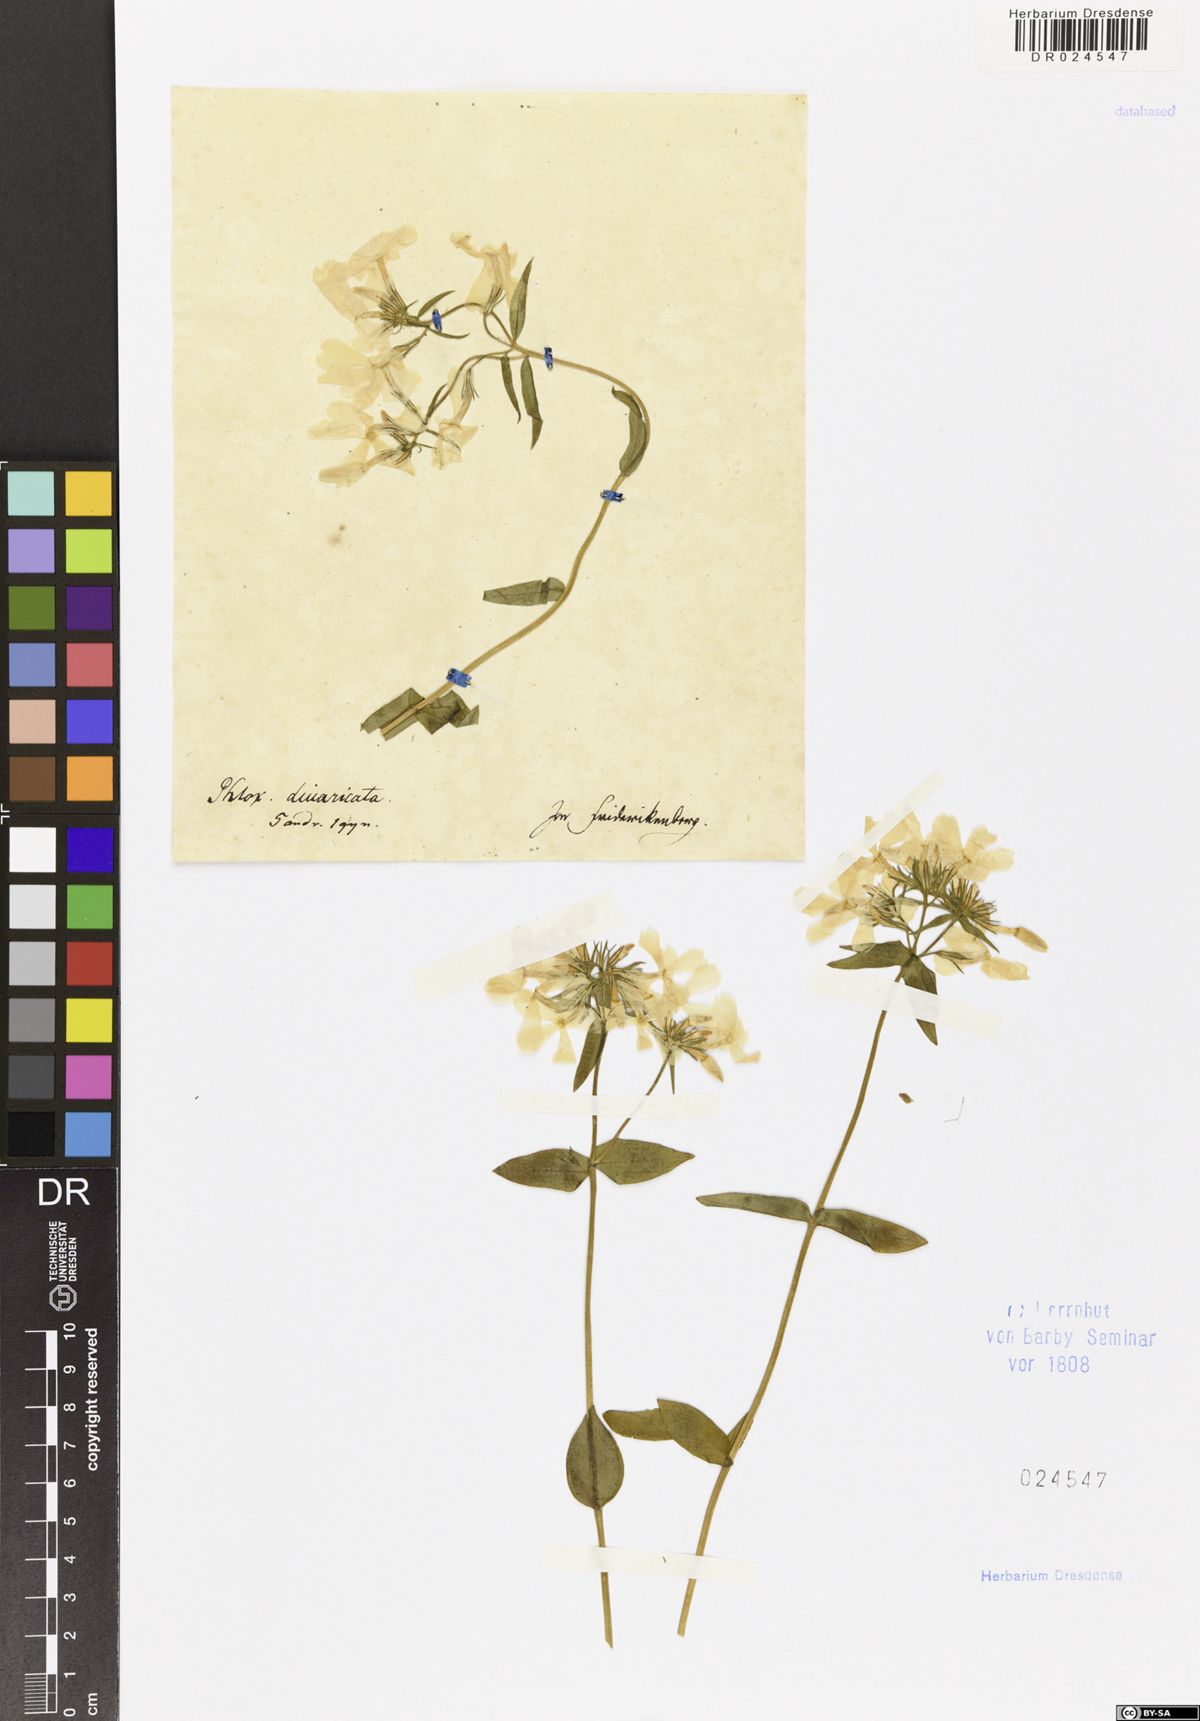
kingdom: Plantae
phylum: Tracheophyta
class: Magnoliopsida
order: Ericales
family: Polemoniaceae
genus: Phlox
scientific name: Phlox divaricata
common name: Blue phlox
